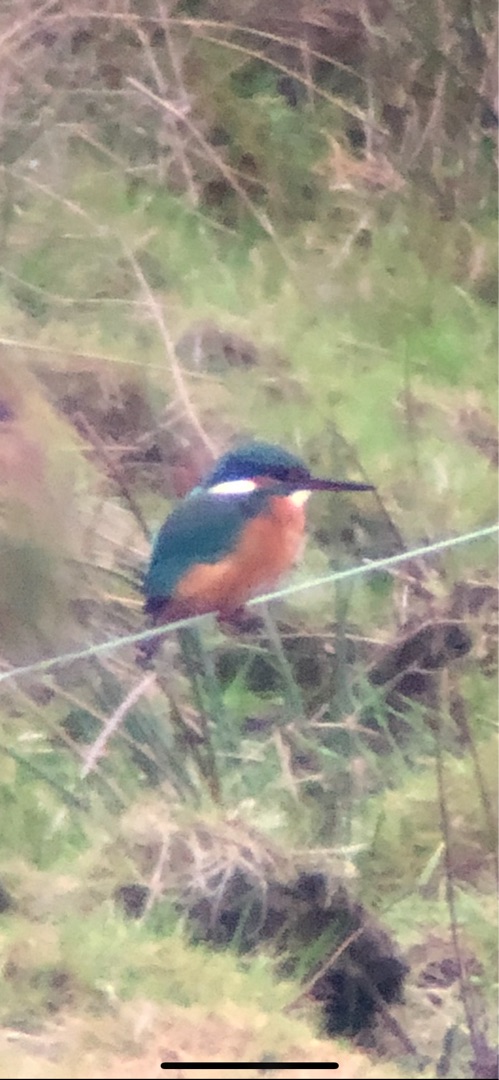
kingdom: Animalia
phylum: Chordata
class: Aves
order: Coraciiformes
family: Alcedinidae
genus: Alcedo
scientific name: Alcedo atthis
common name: Isfugl
